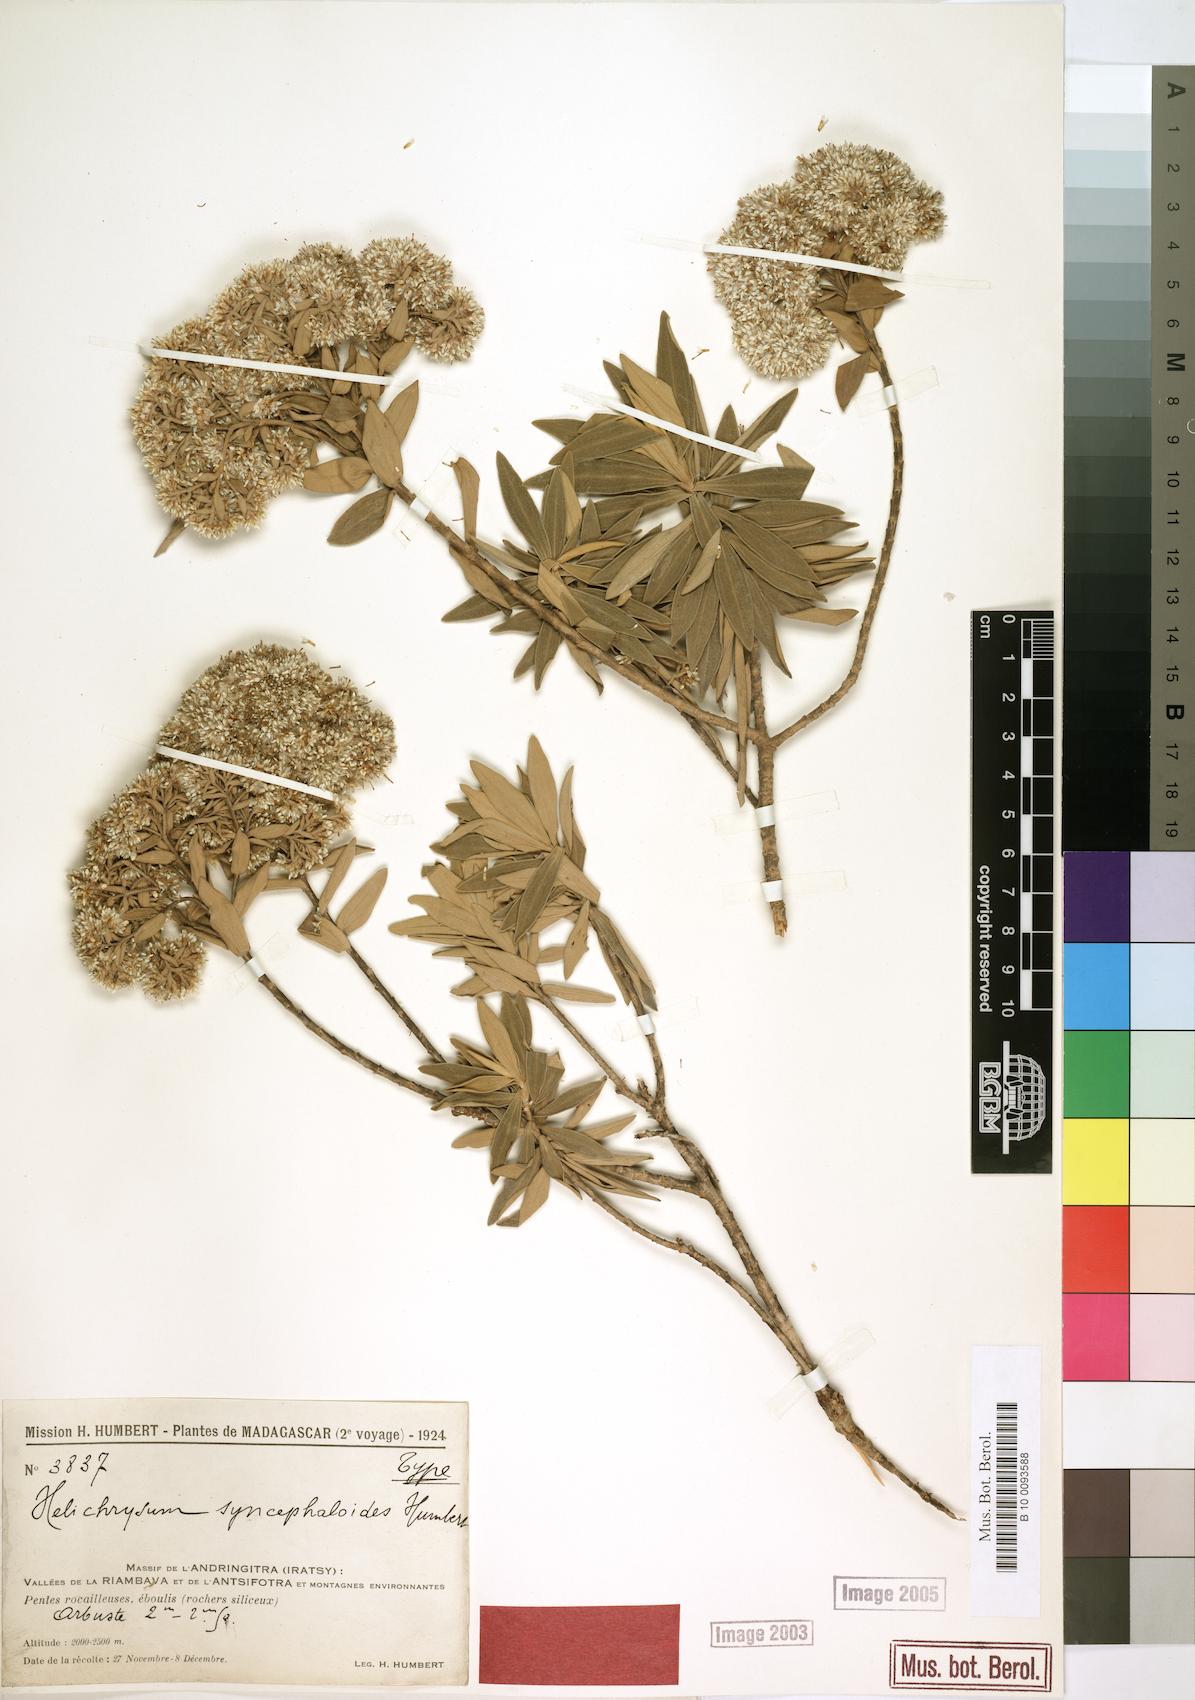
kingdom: Plantae
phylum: Tracheophyta
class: Magnoliopsida
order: Asterales
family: Asteraceae
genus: Helichrysum
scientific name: Helichrysum syncephaloides
